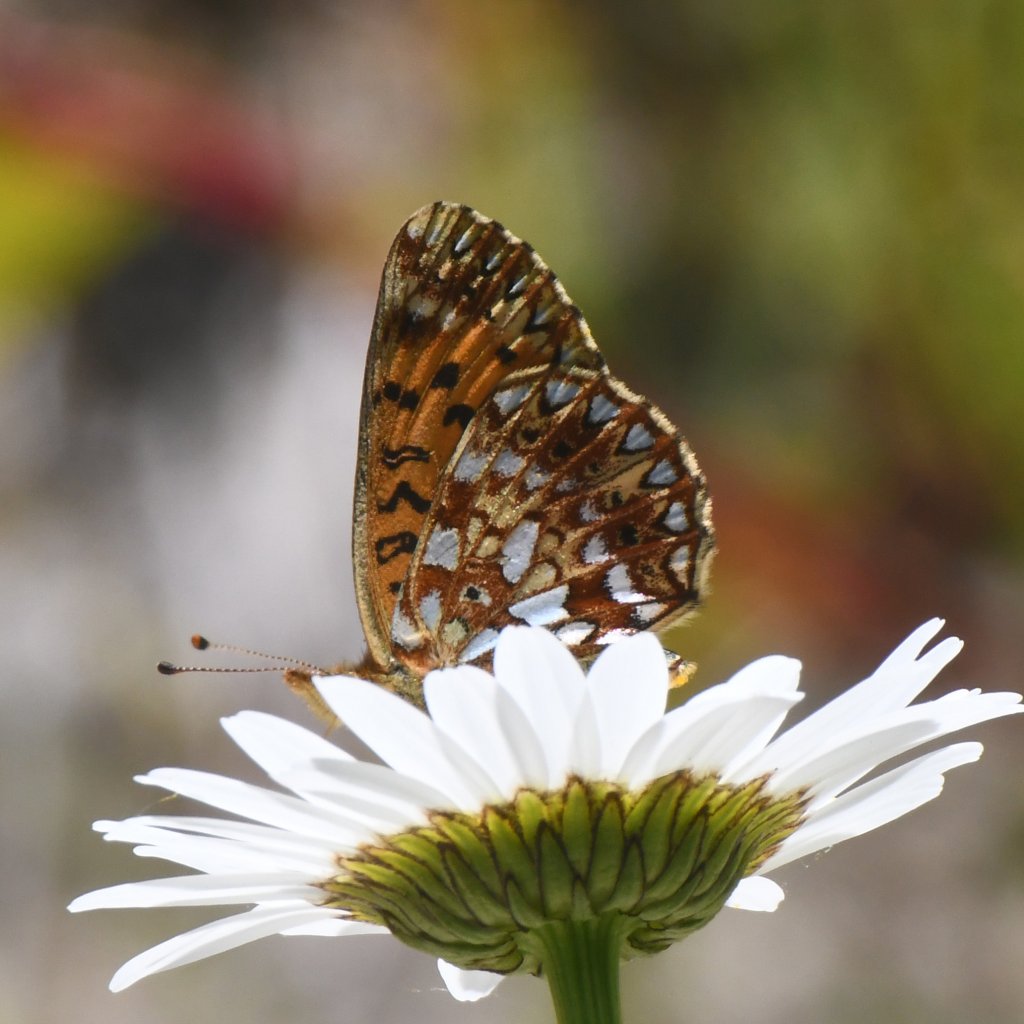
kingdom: Animalia
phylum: Arthropoda
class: Insecta
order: Lepidoptera
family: Nymphalidae
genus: Boloria
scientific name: Boloria selene
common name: Silver-bordered Fritillary
